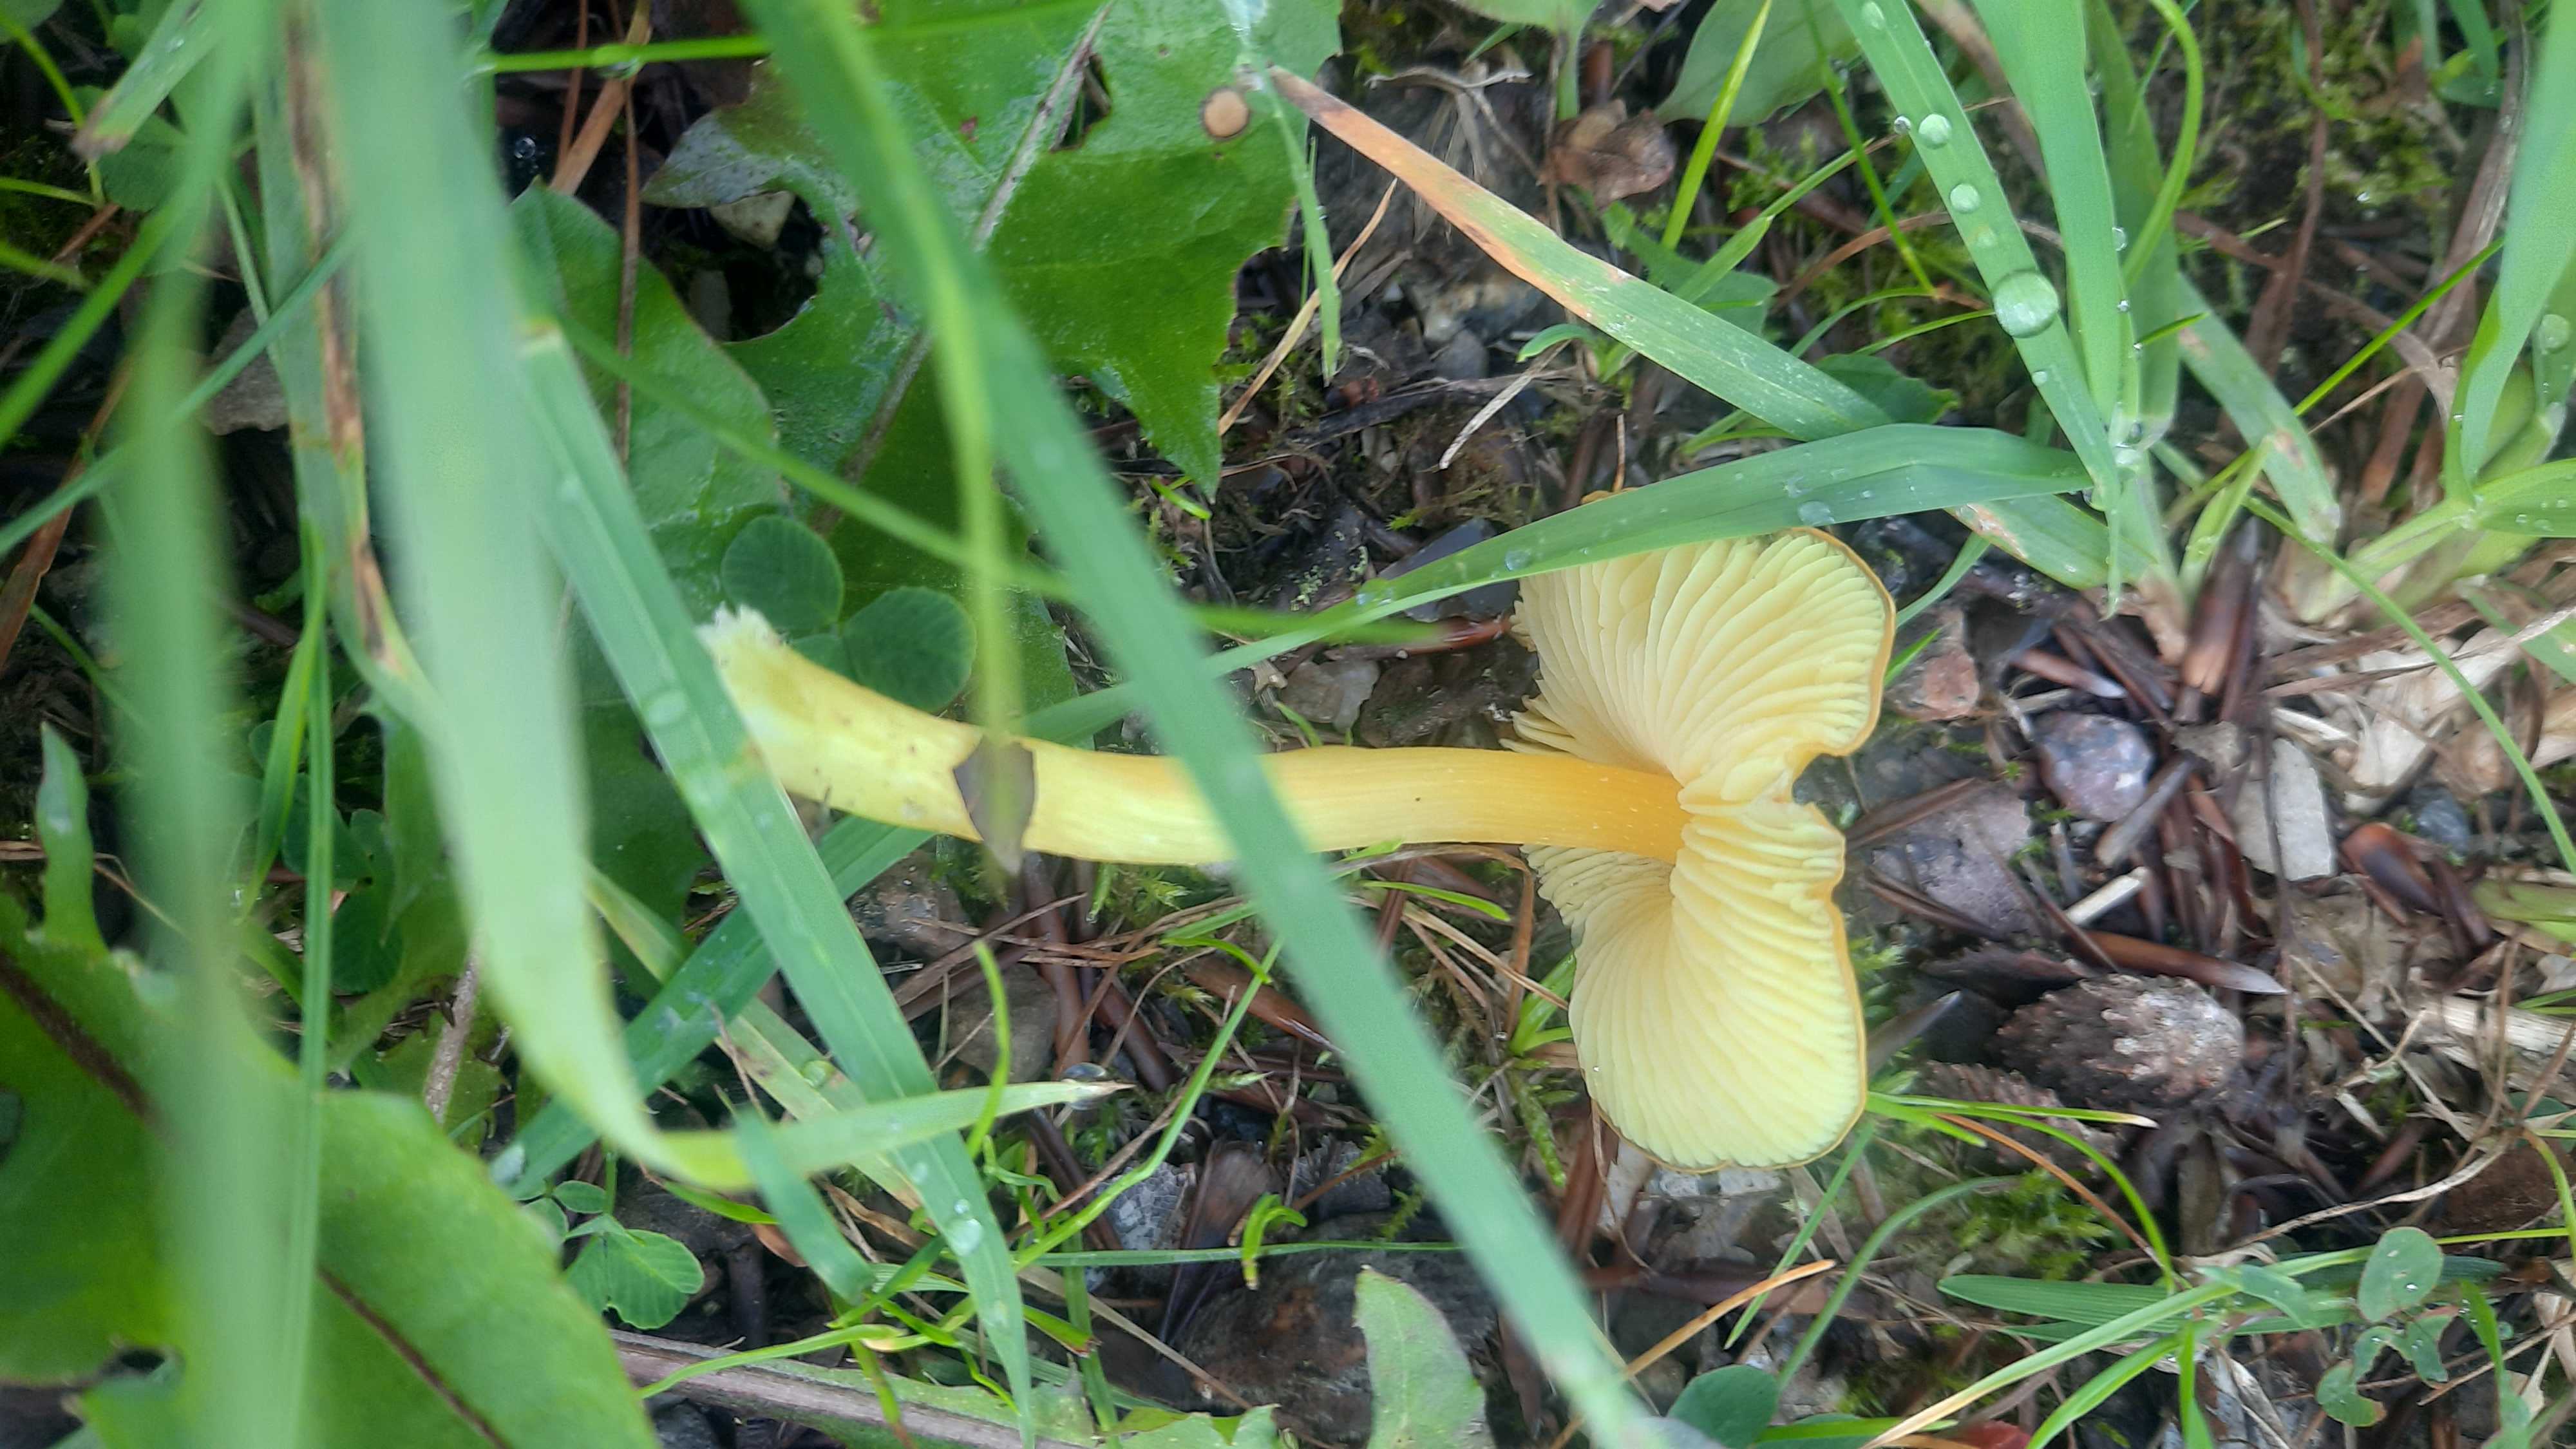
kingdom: Fungi
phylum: Basidiomycota
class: Agaricomycetes
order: Agaricales
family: Hygrophoraceae
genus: Hygrocybe
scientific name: Hygrocybe
